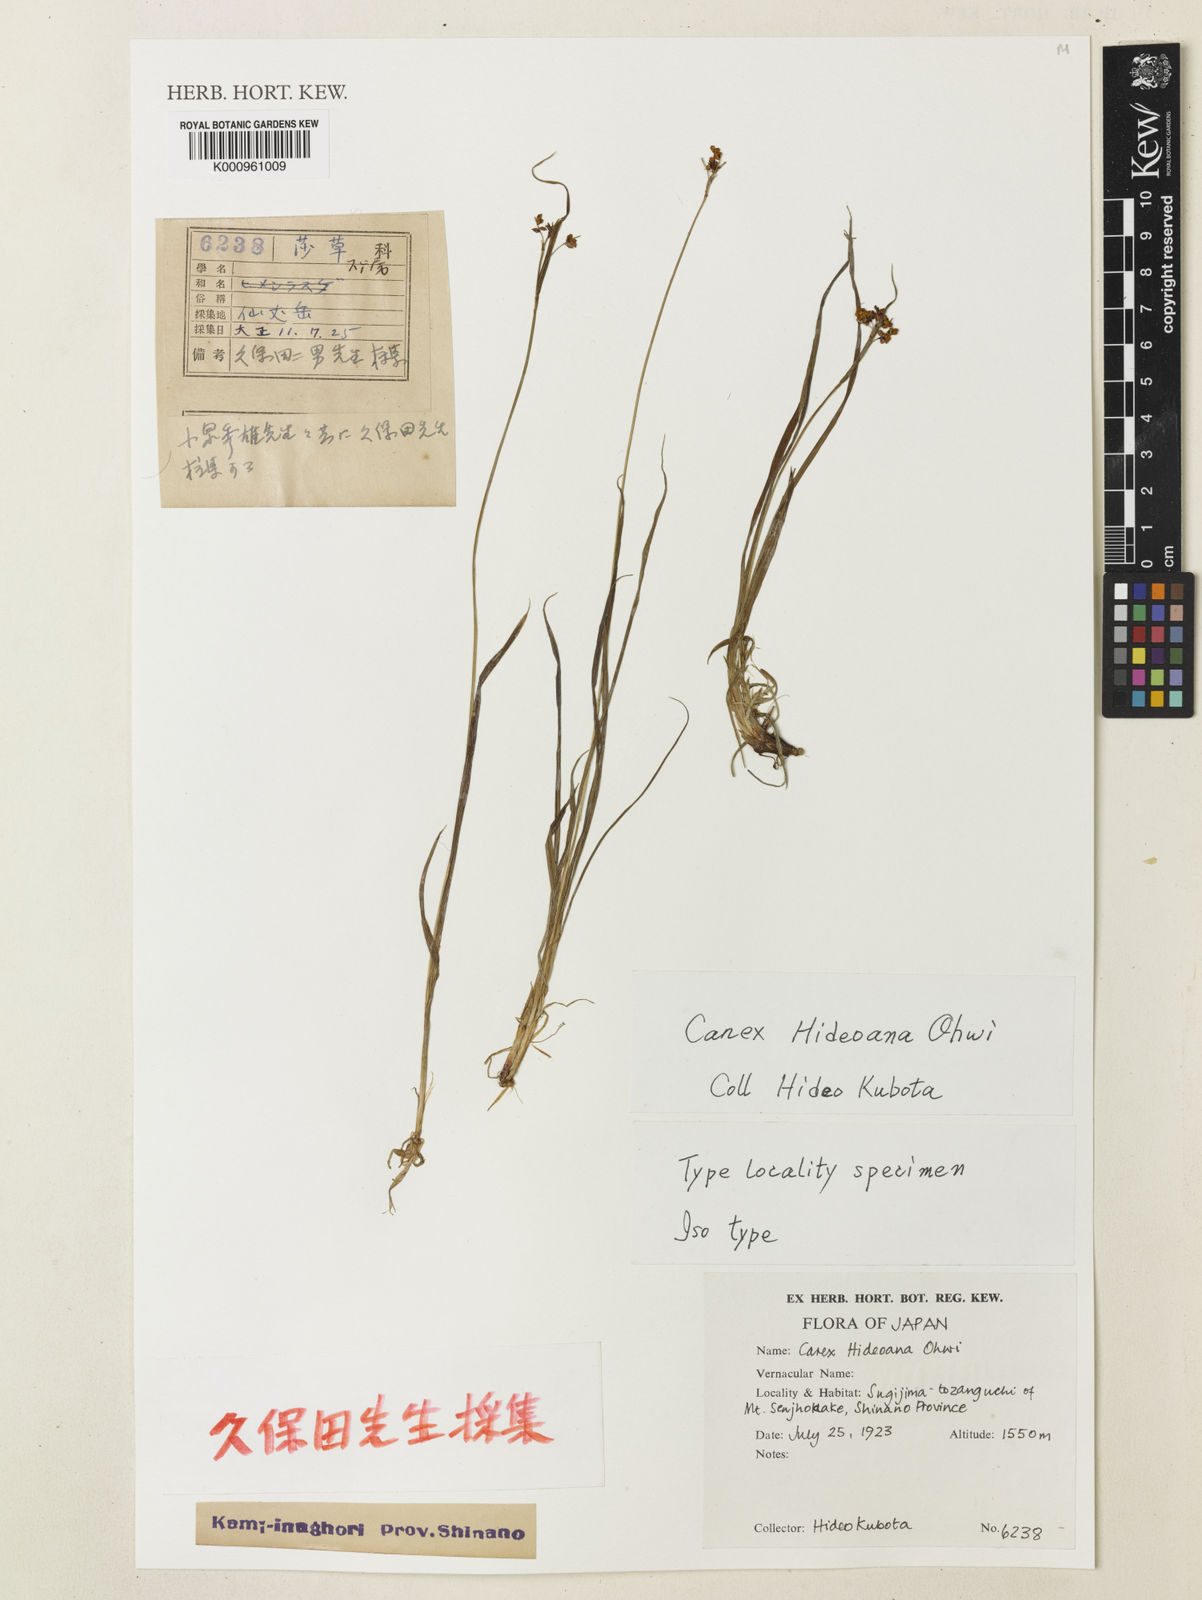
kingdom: Plantae
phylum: Tracheophyta
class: Liliopsida
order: Poales
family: Cyperaceae
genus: Carex
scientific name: Carex
